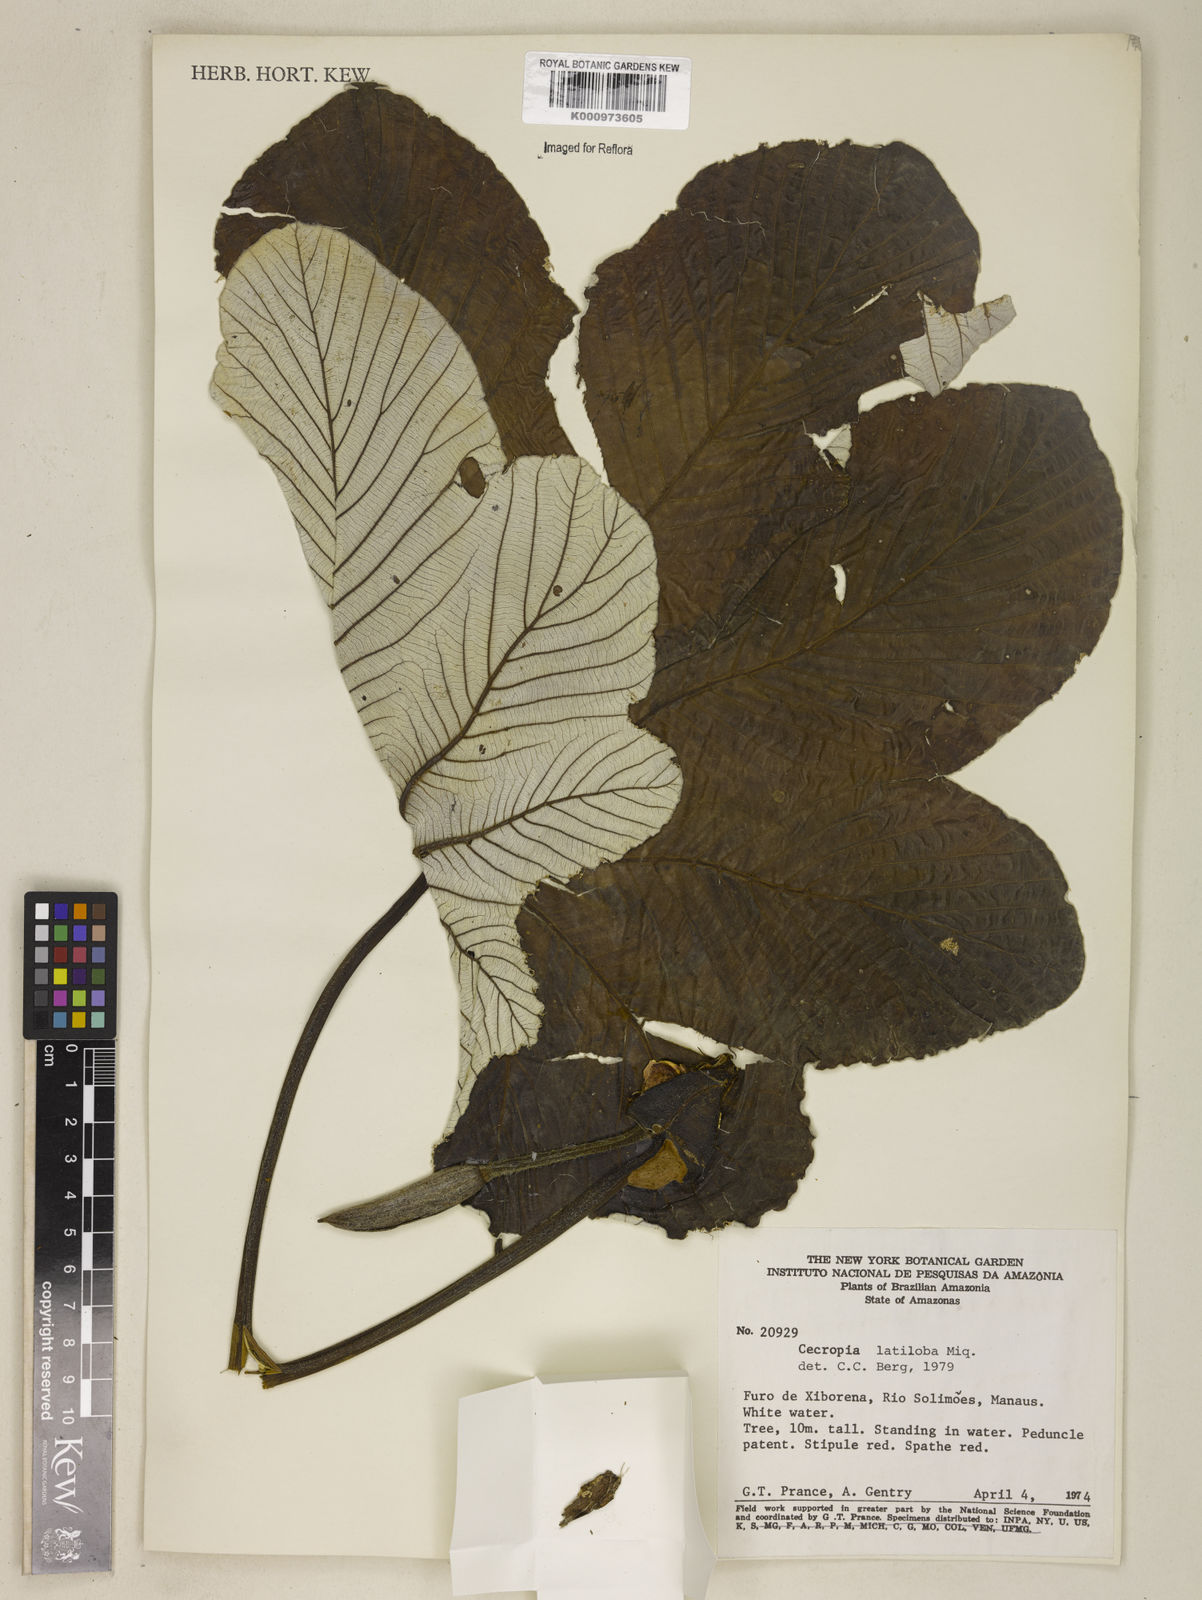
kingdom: Plantae
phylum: Tracheophyta
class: Magnoliopsida
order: Rosales
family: Urticaceae
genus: Cecropia
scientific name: Cecropia latiloba
